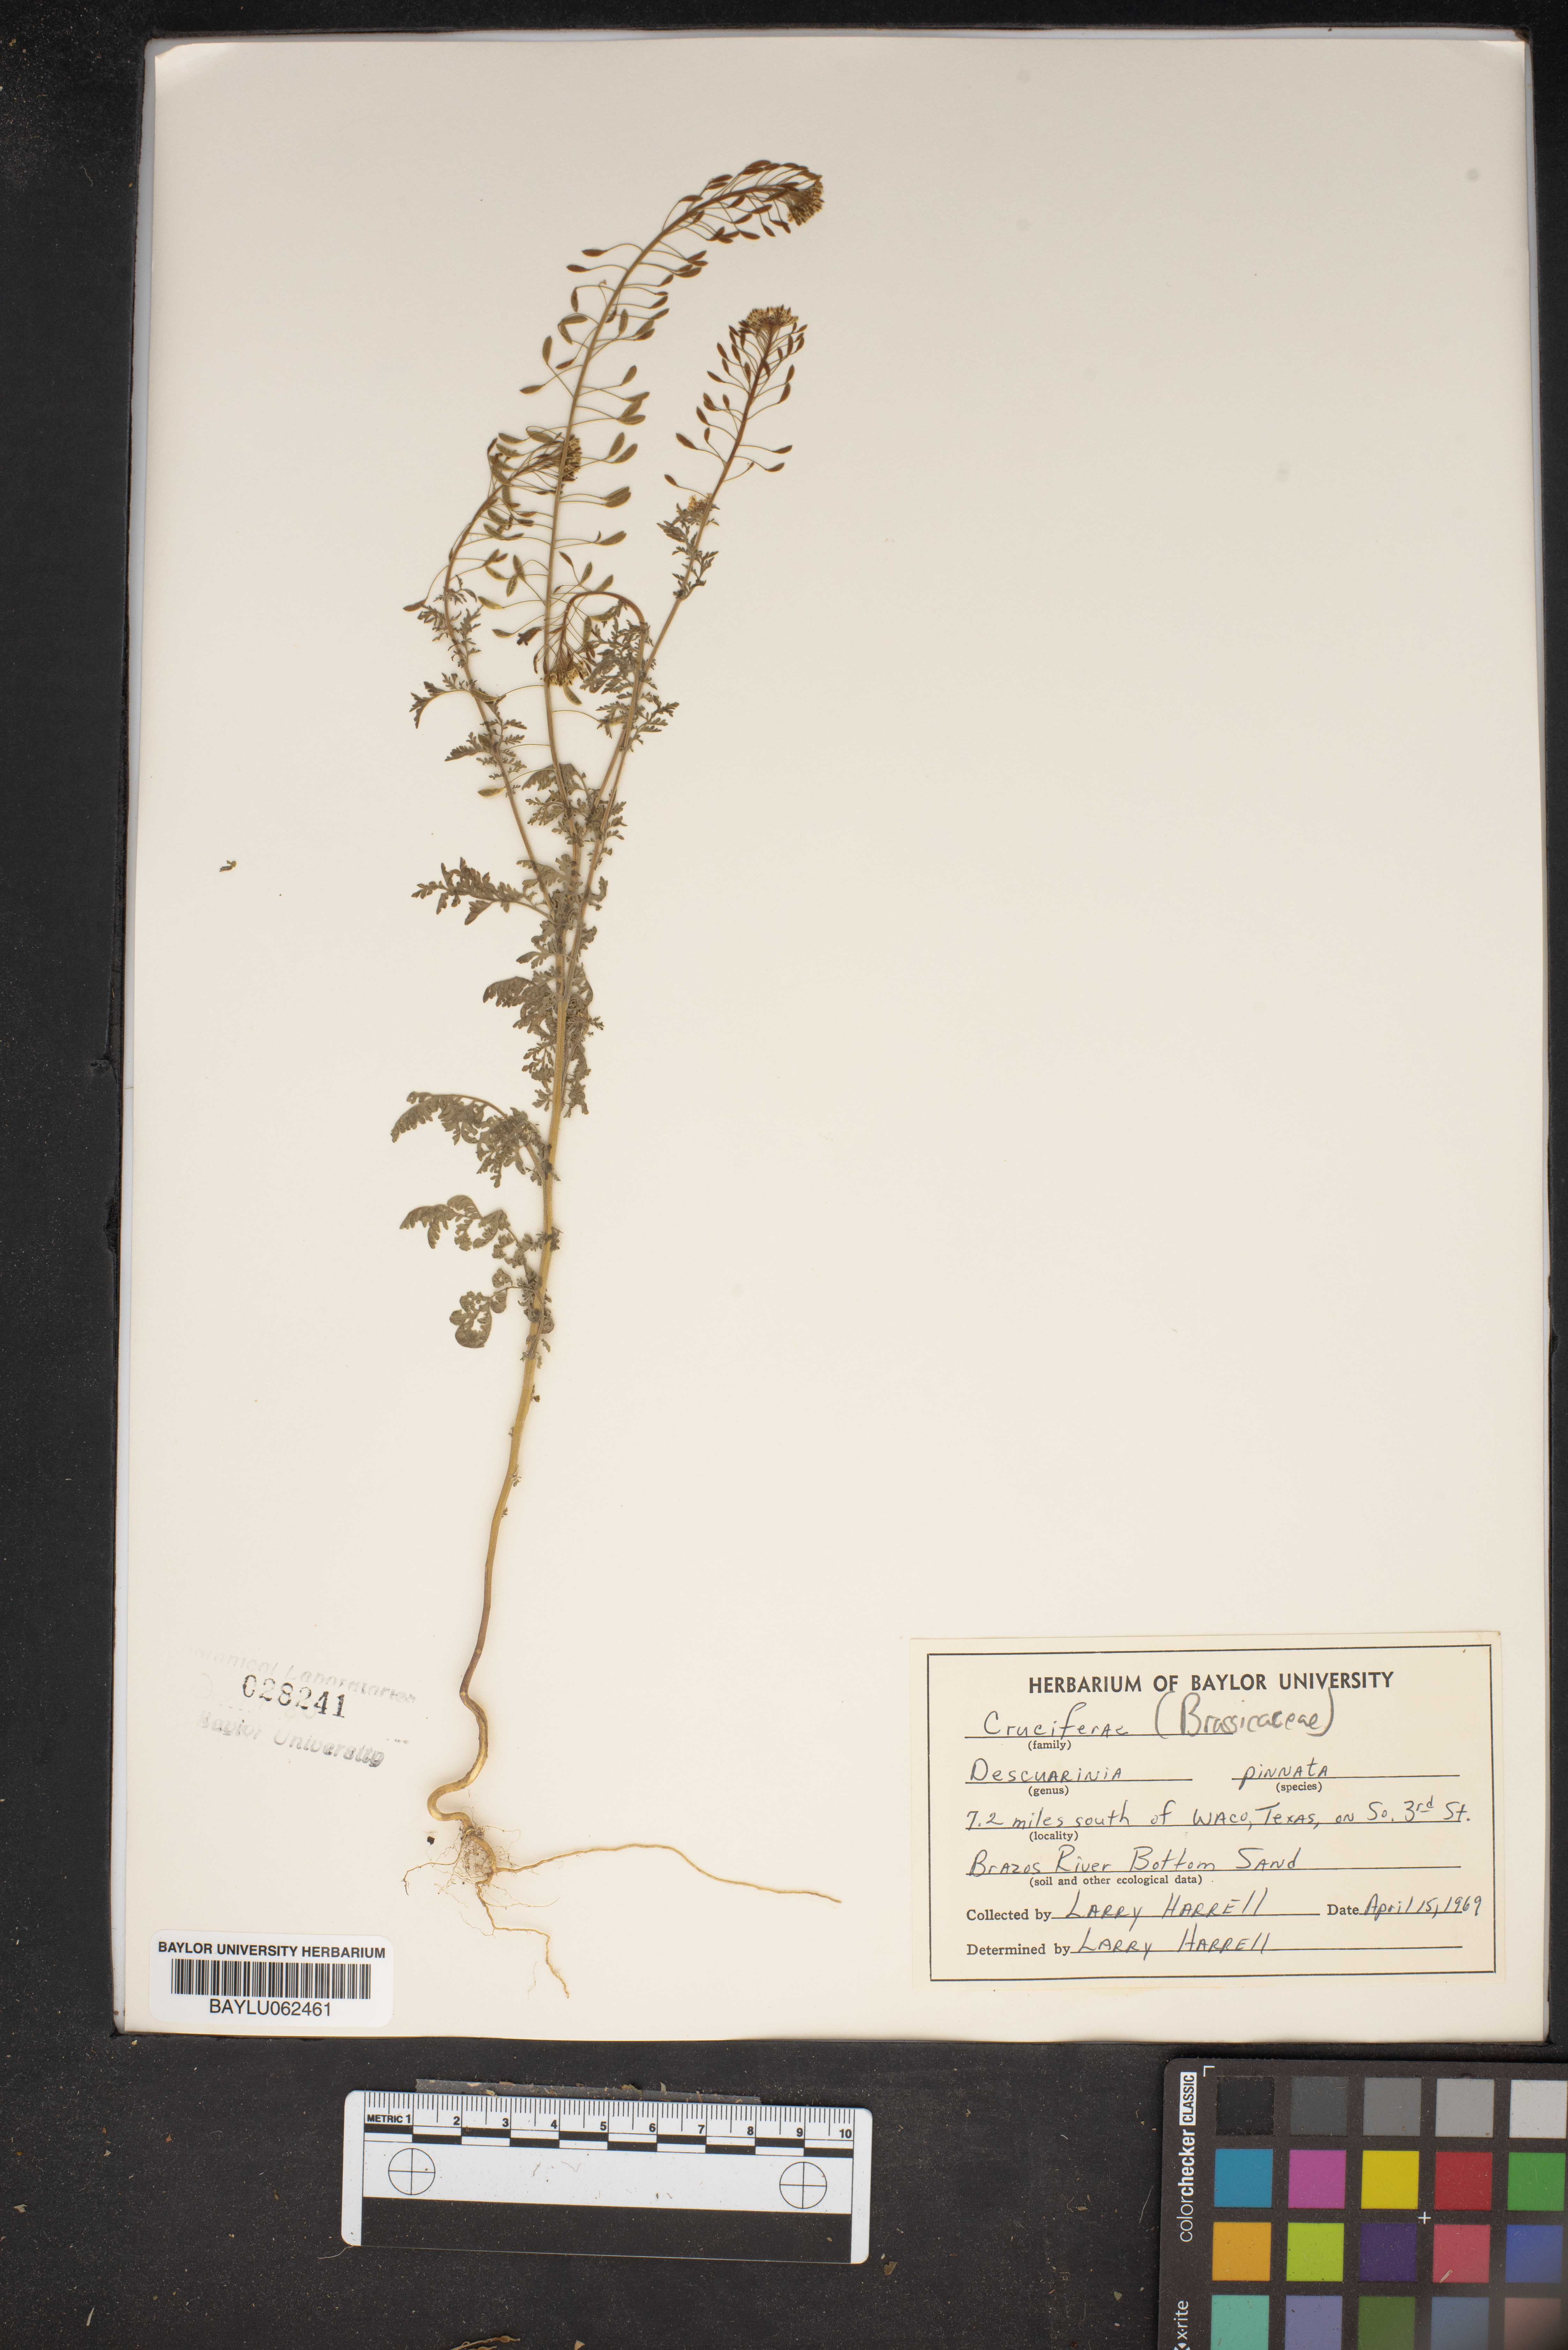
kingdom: Plantae
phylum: Tracheophyta
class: Magnoliopsida
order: Brassicales
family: Brassicaceae
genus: Descurainia
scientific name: Descurainia pinnata
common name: Western tansy mustard
